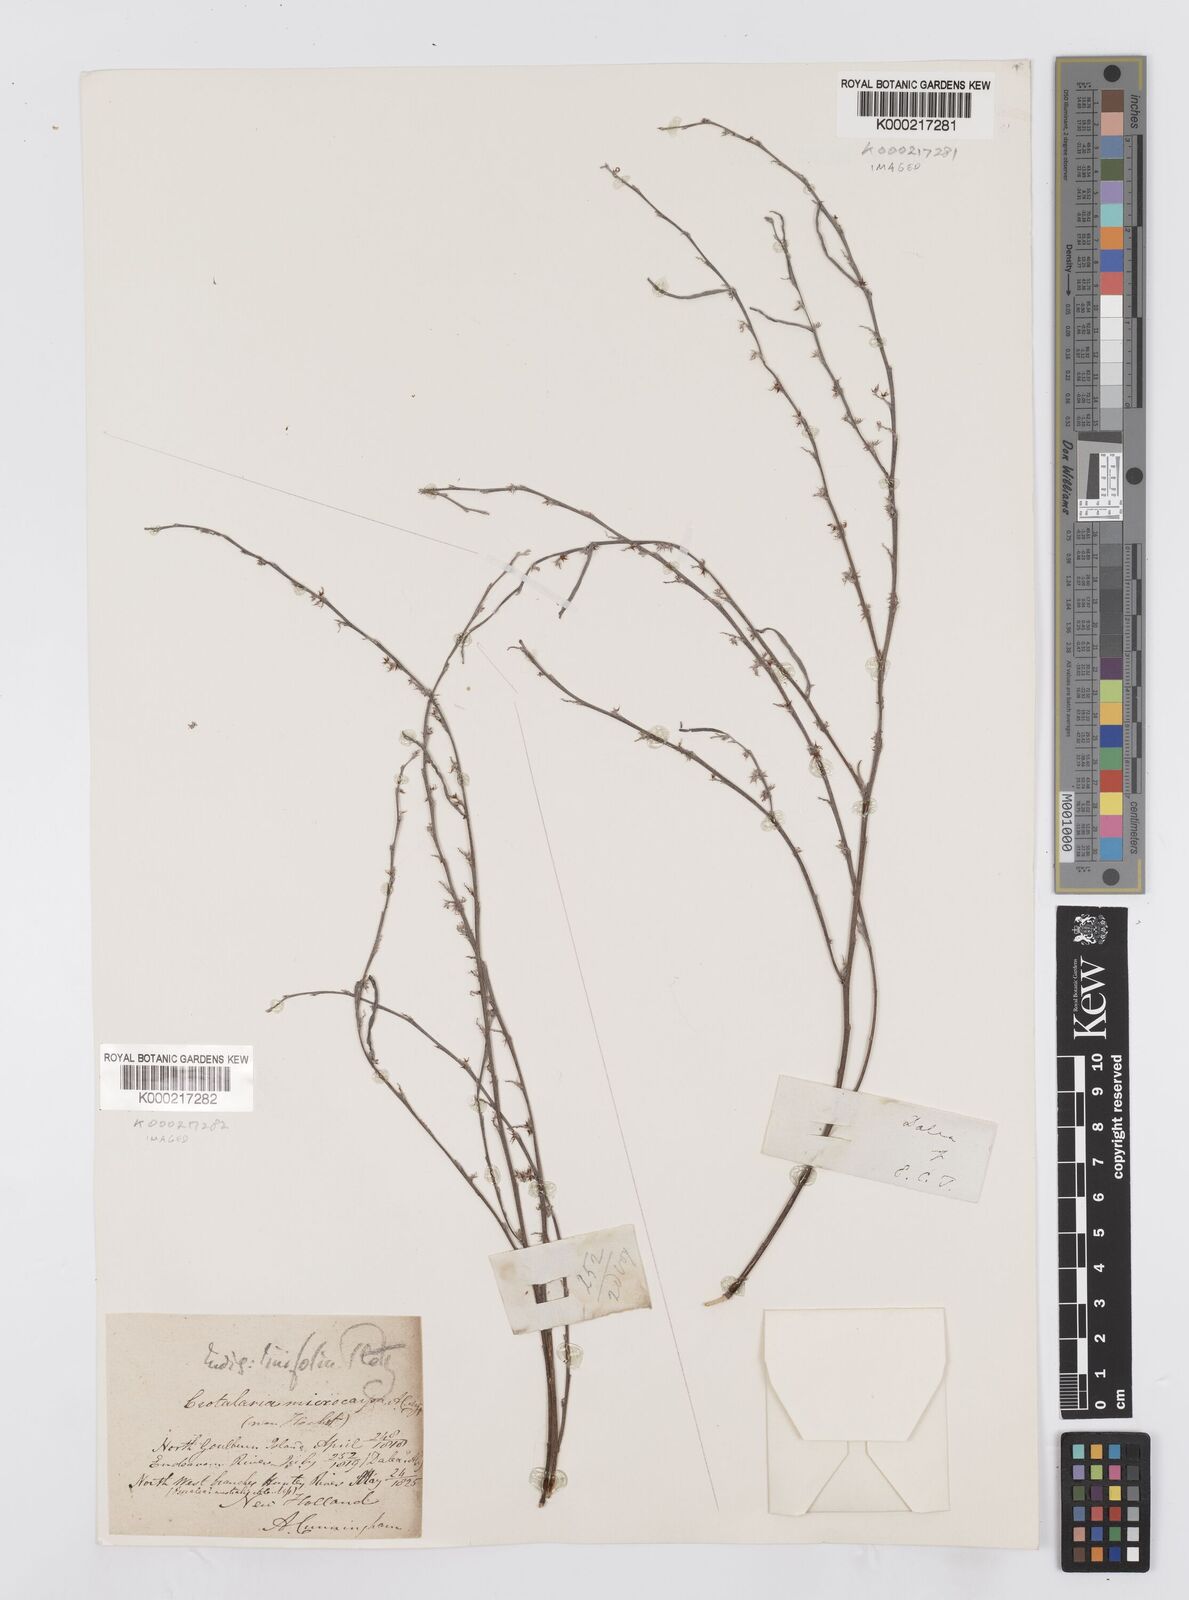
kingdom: Plantae
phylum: Tracheophyta
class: Magnoliopsida
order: Fabales
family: Fabaceae
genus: Indigofera
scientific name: Indigofera linifolia
